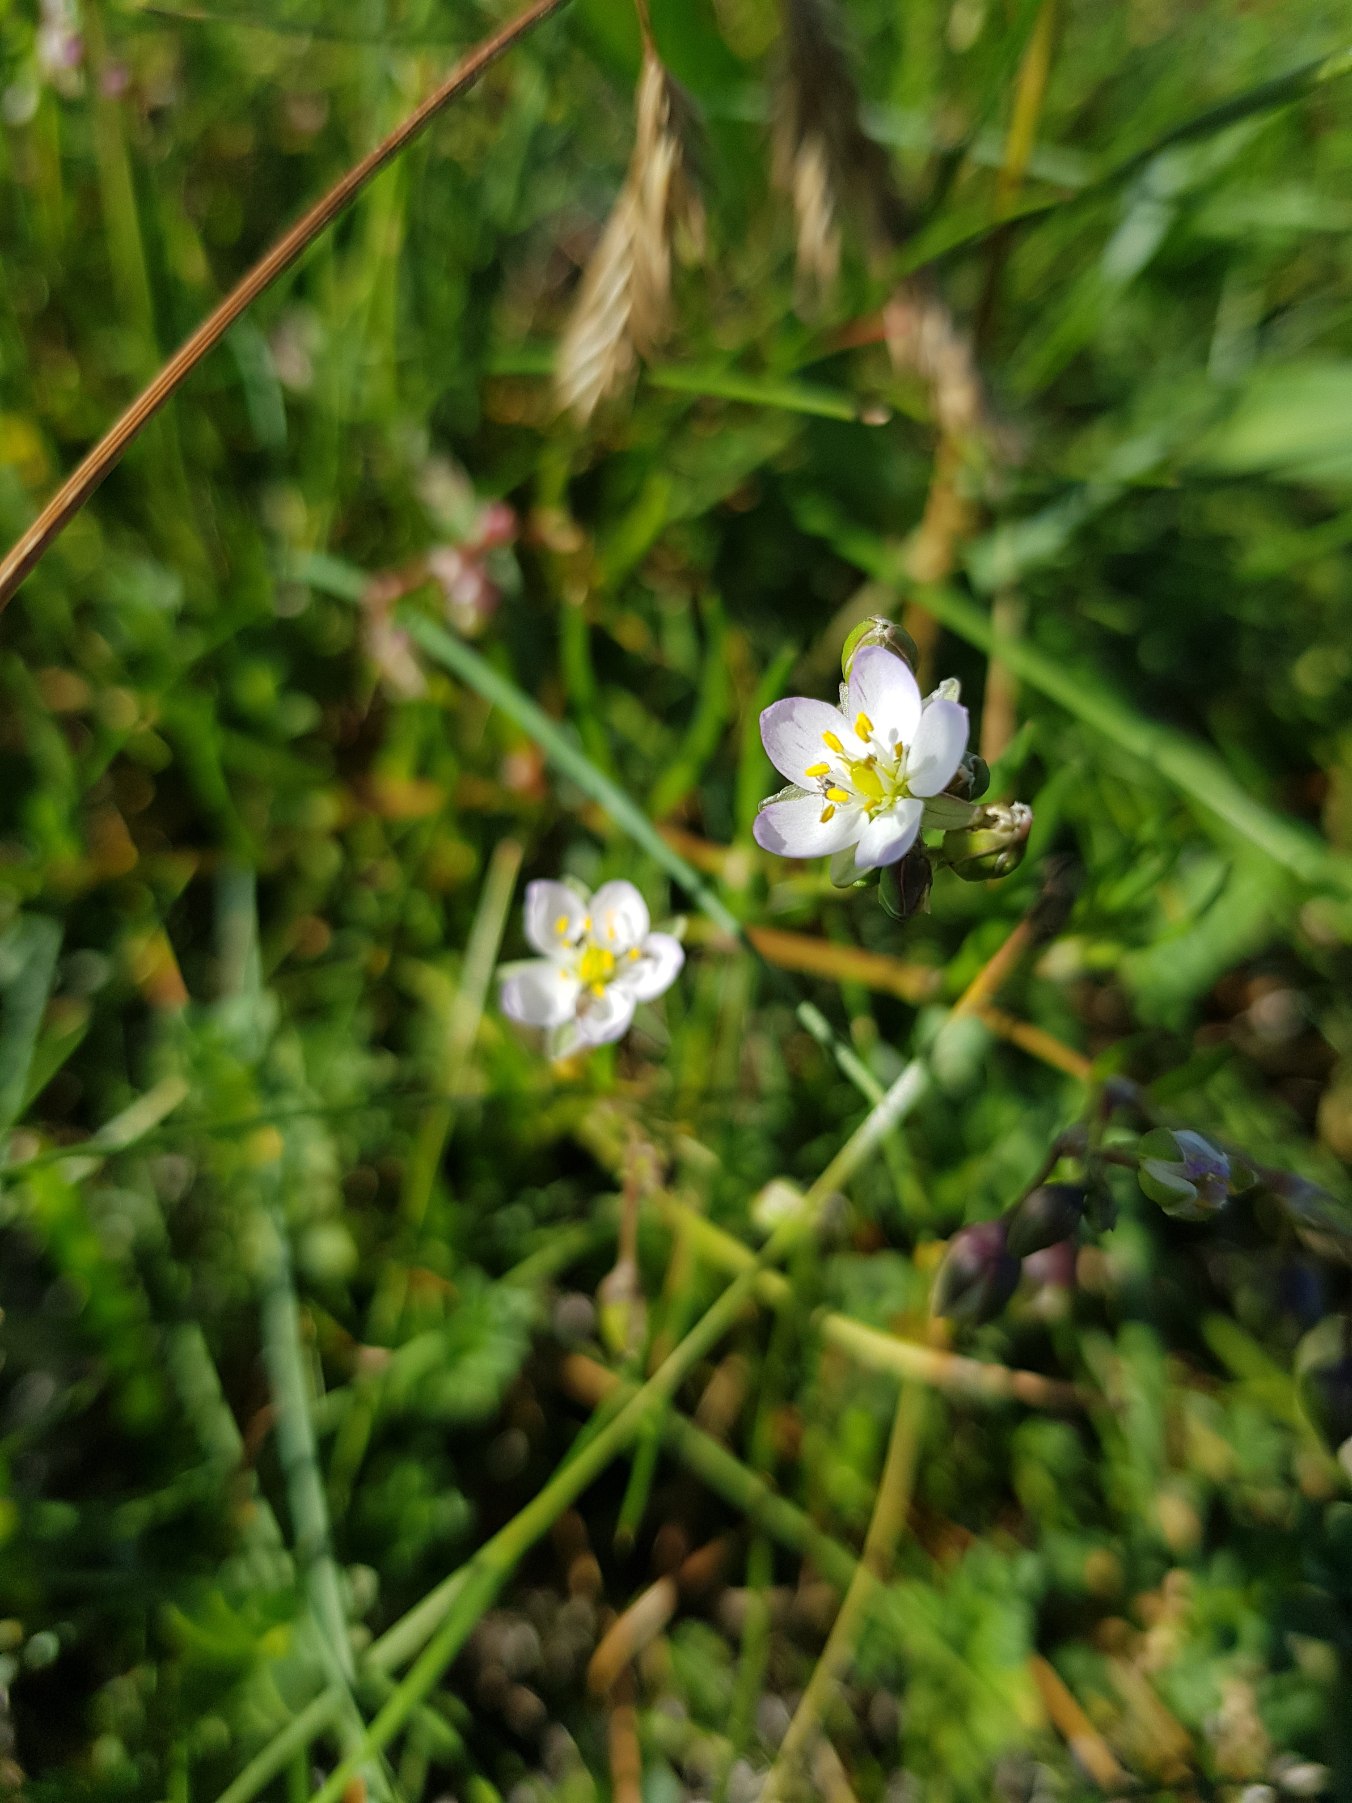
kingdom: Plantae
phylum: Tracheophyta
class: Magnoliopsida
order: Caryophyllales
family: Caryophyllaceae
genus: Spergularia
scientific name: Spergularia media
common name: Vingefrøet hindeknæ
